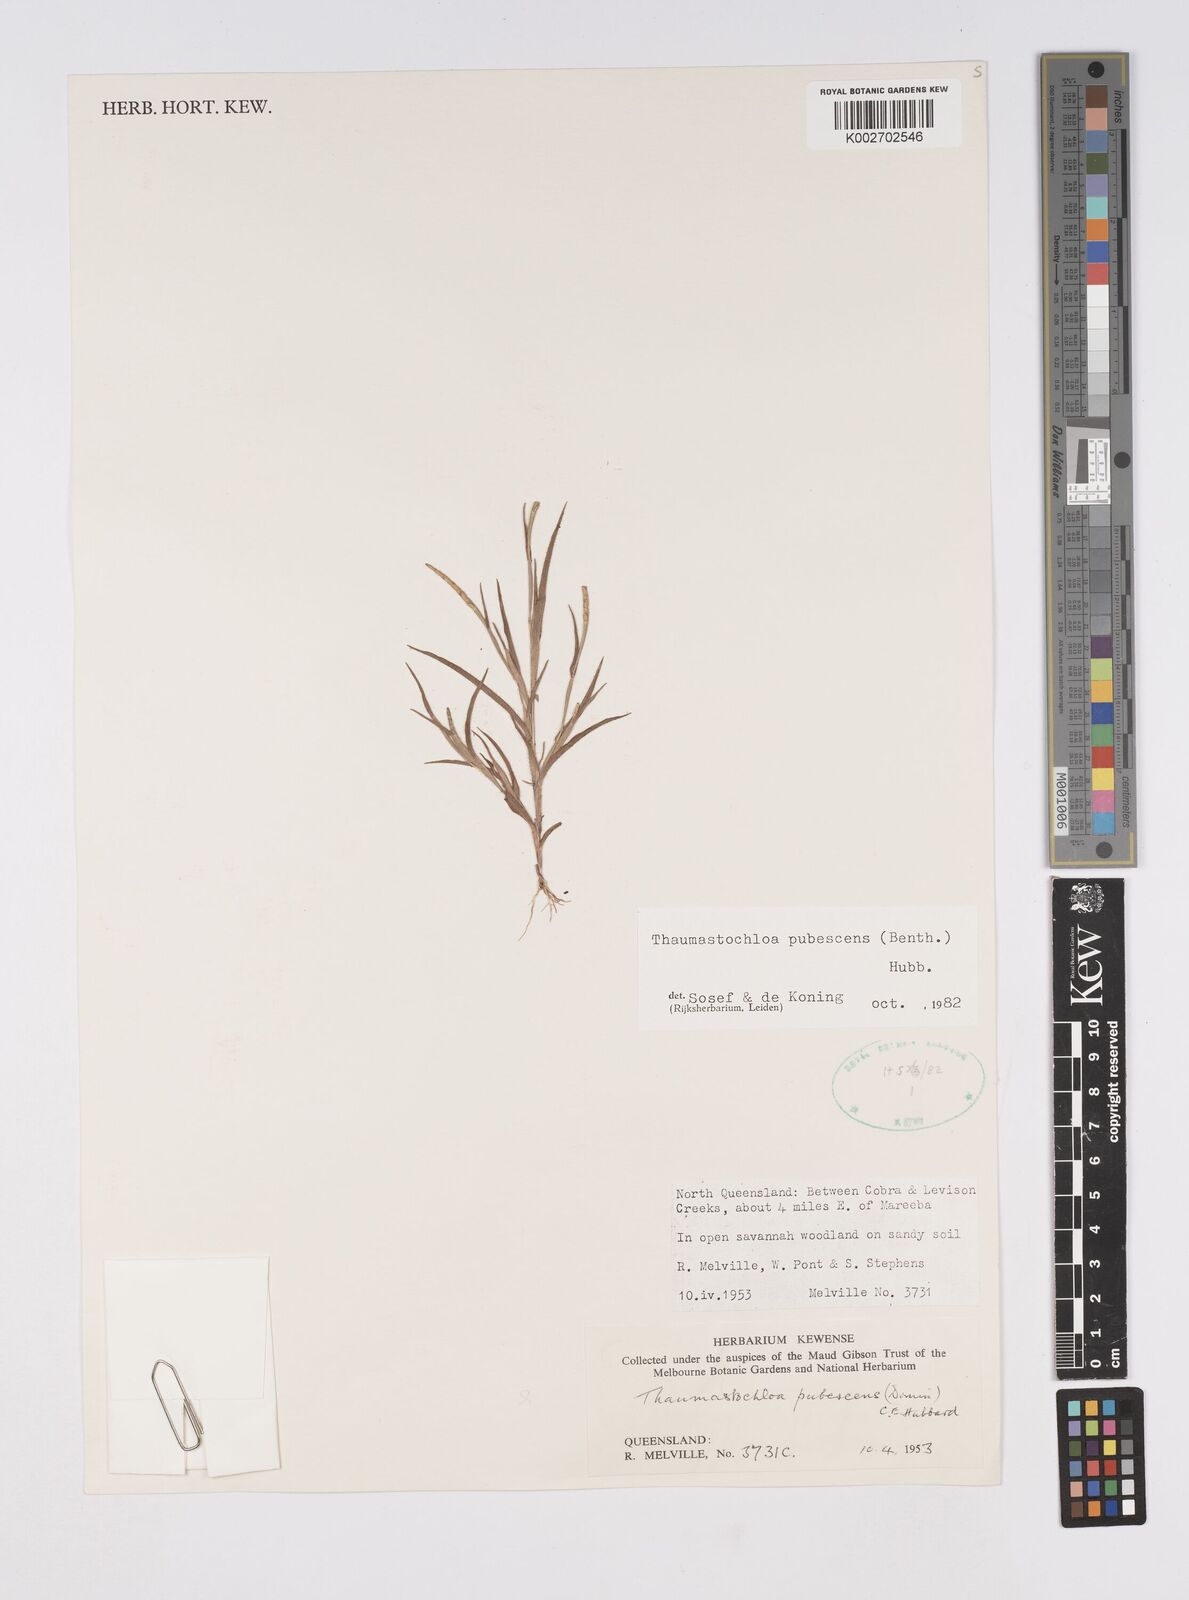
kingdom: Plantae
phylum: Tracheophyta
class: Liliopsida
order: Poales
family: Poaceae
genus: Thaumastochloa
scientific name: Thaumastochloa pubescens
